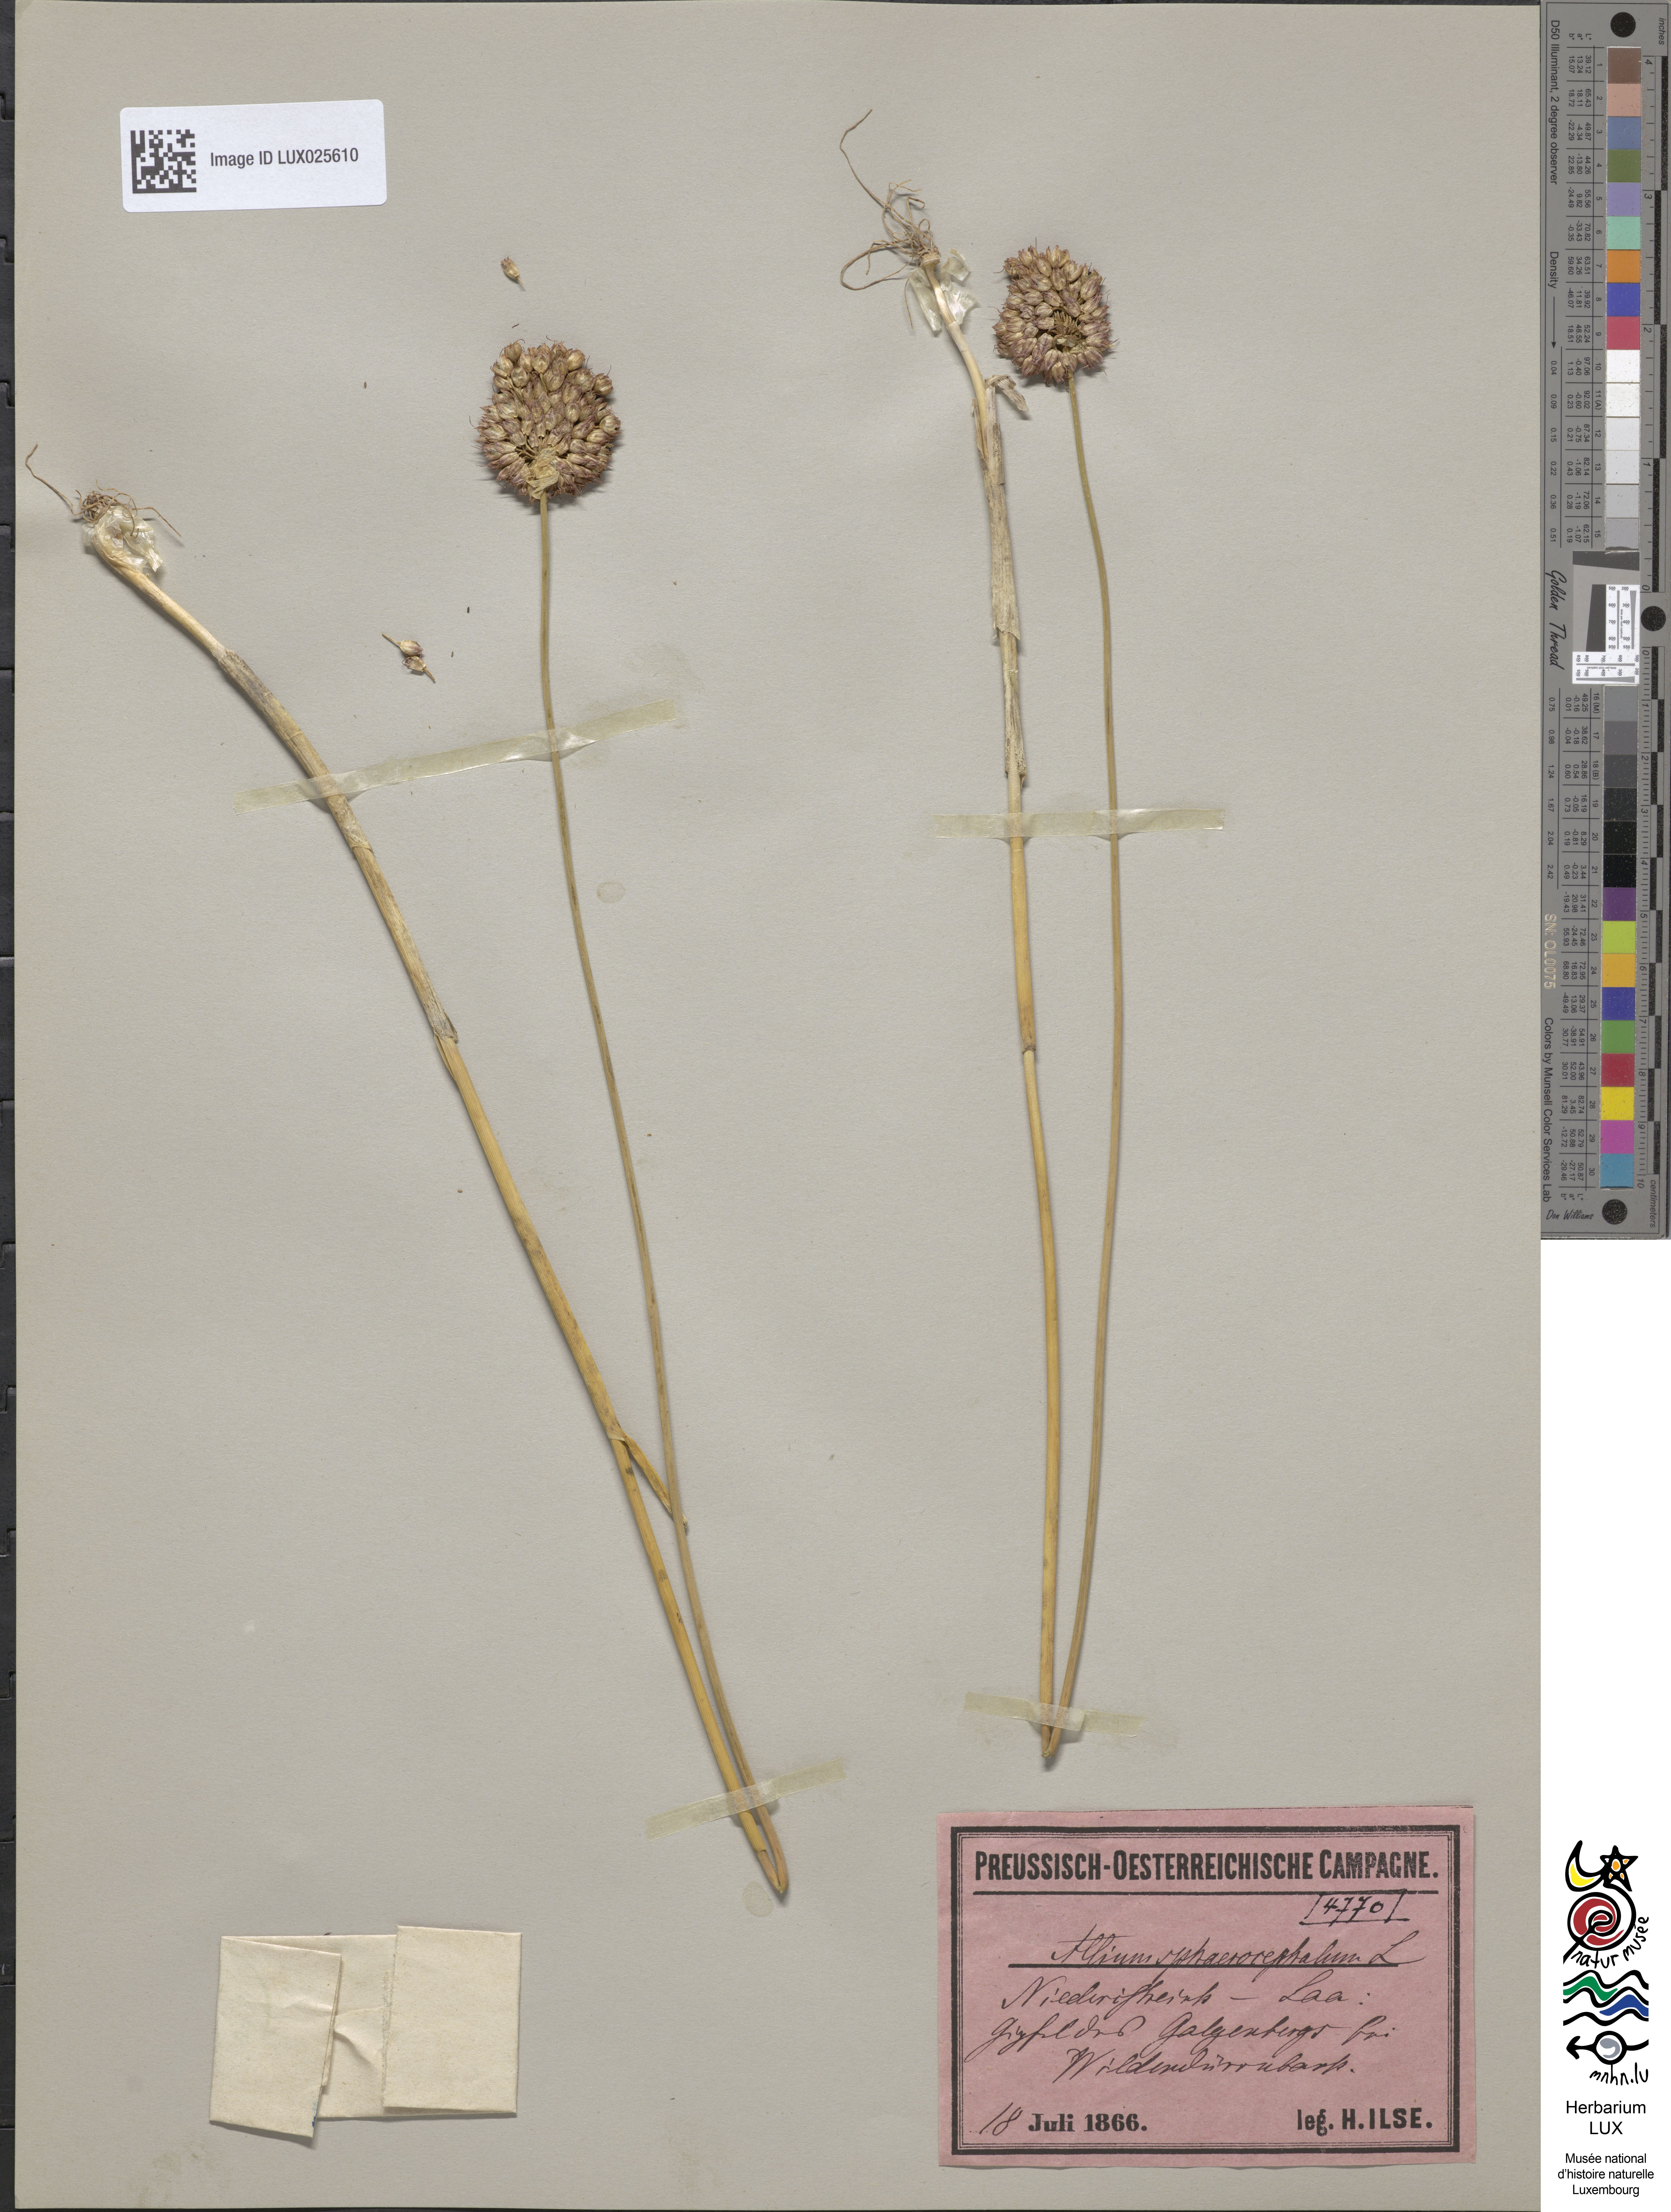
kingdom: Plantae
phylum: Tracheophyta
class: Liliopsida
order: Asparagales
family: Amaryllidaceae
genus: Allium
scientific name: Allium sphaerocephalon
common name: Round-headed leek
